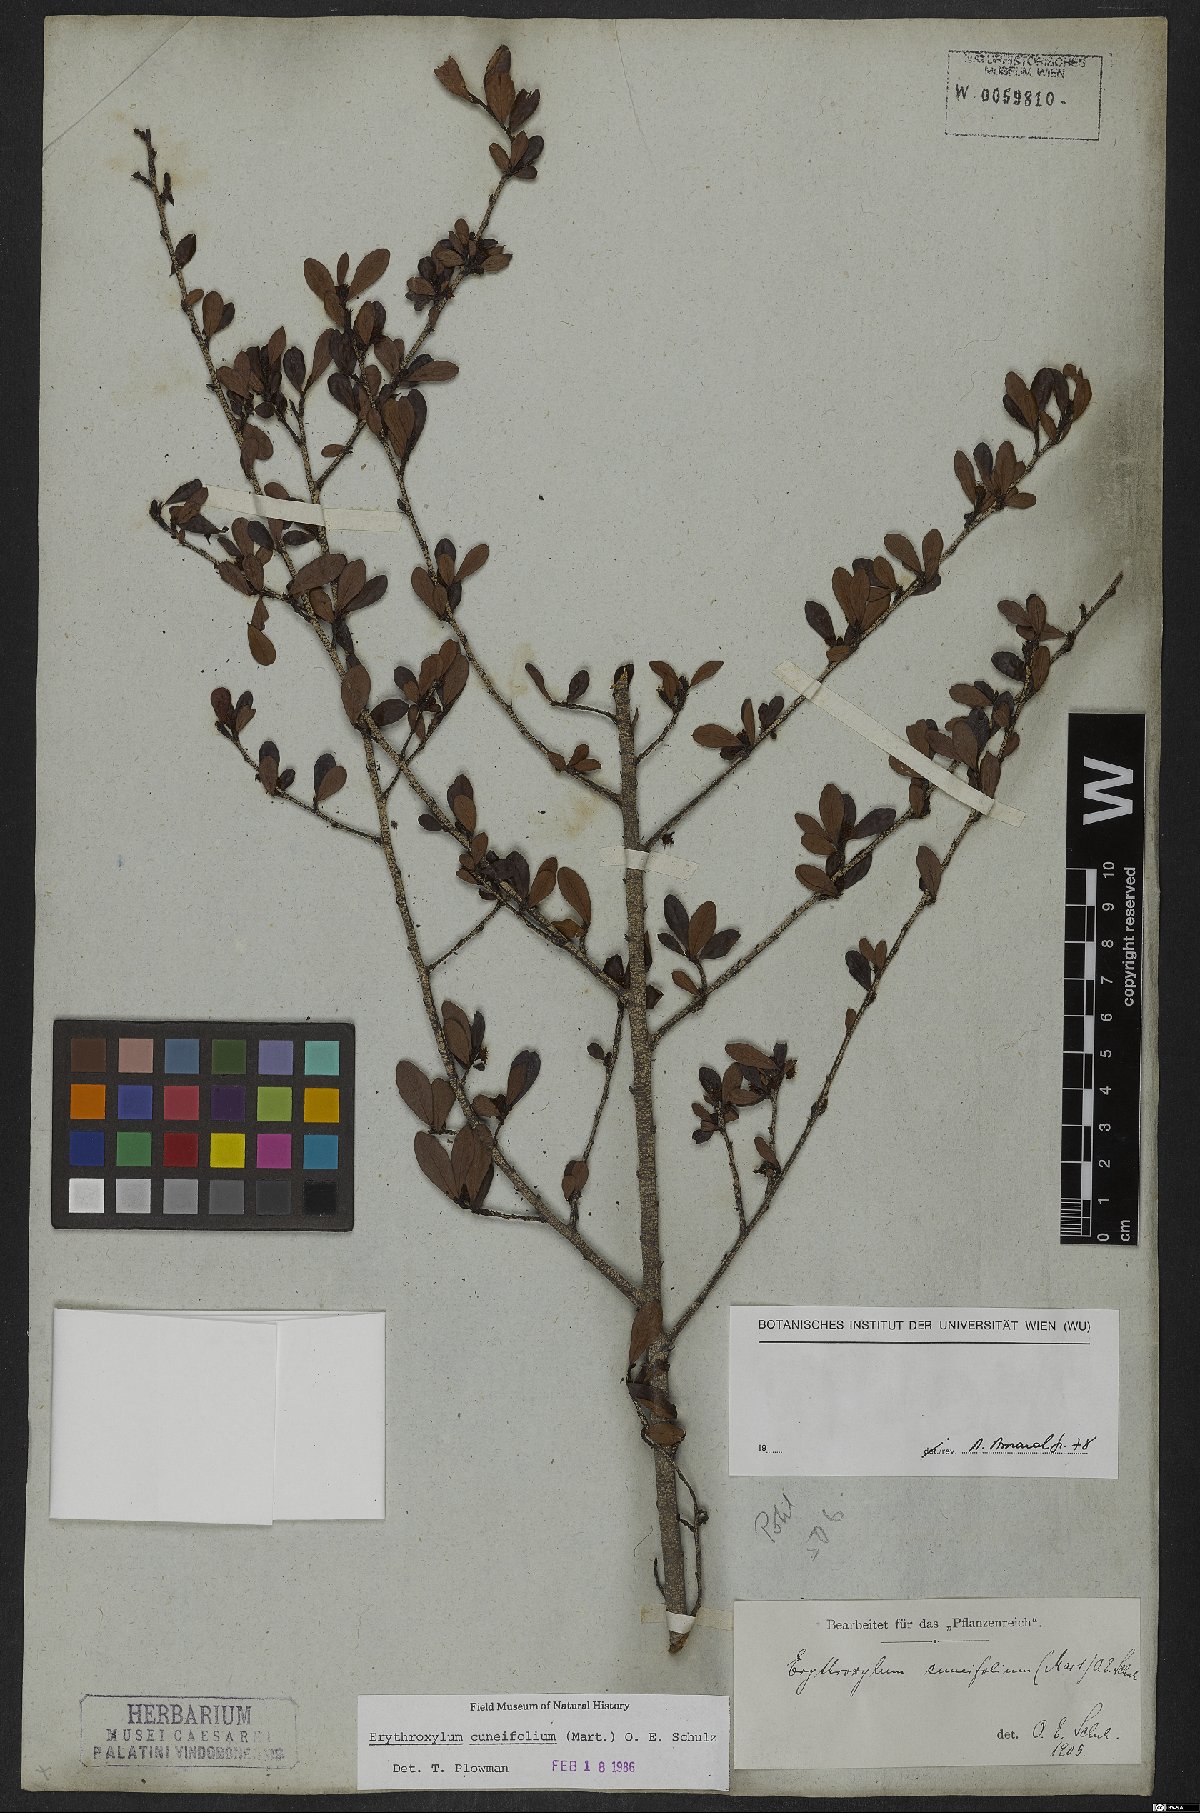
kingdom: Plantae
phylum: Tracheophyta
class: Magnoliopsida
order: Malpighiales
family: Erythroxylaceae
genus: Erythroxylum
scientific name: Erythroxylum cuneifolium
